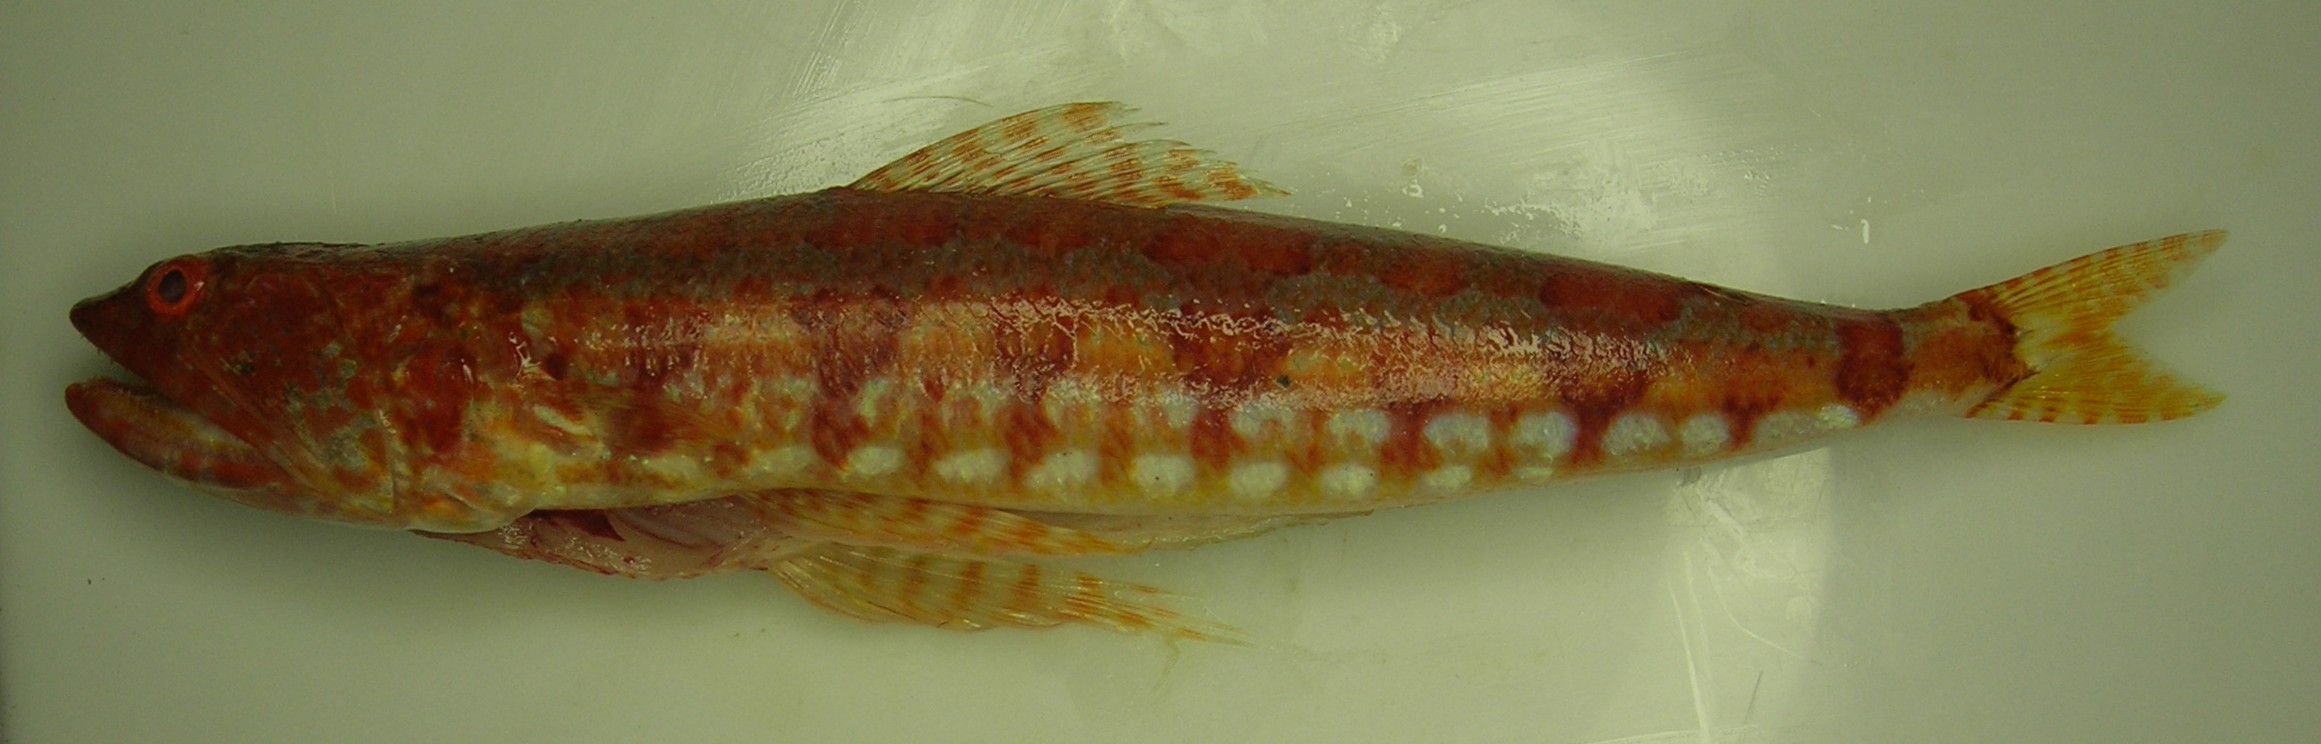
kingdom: Animalia
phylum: Chordata
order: Aulopiformes
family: Synodontidae
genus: Synodus
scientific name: Synodus variegatus
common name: Variegated lizardfish
